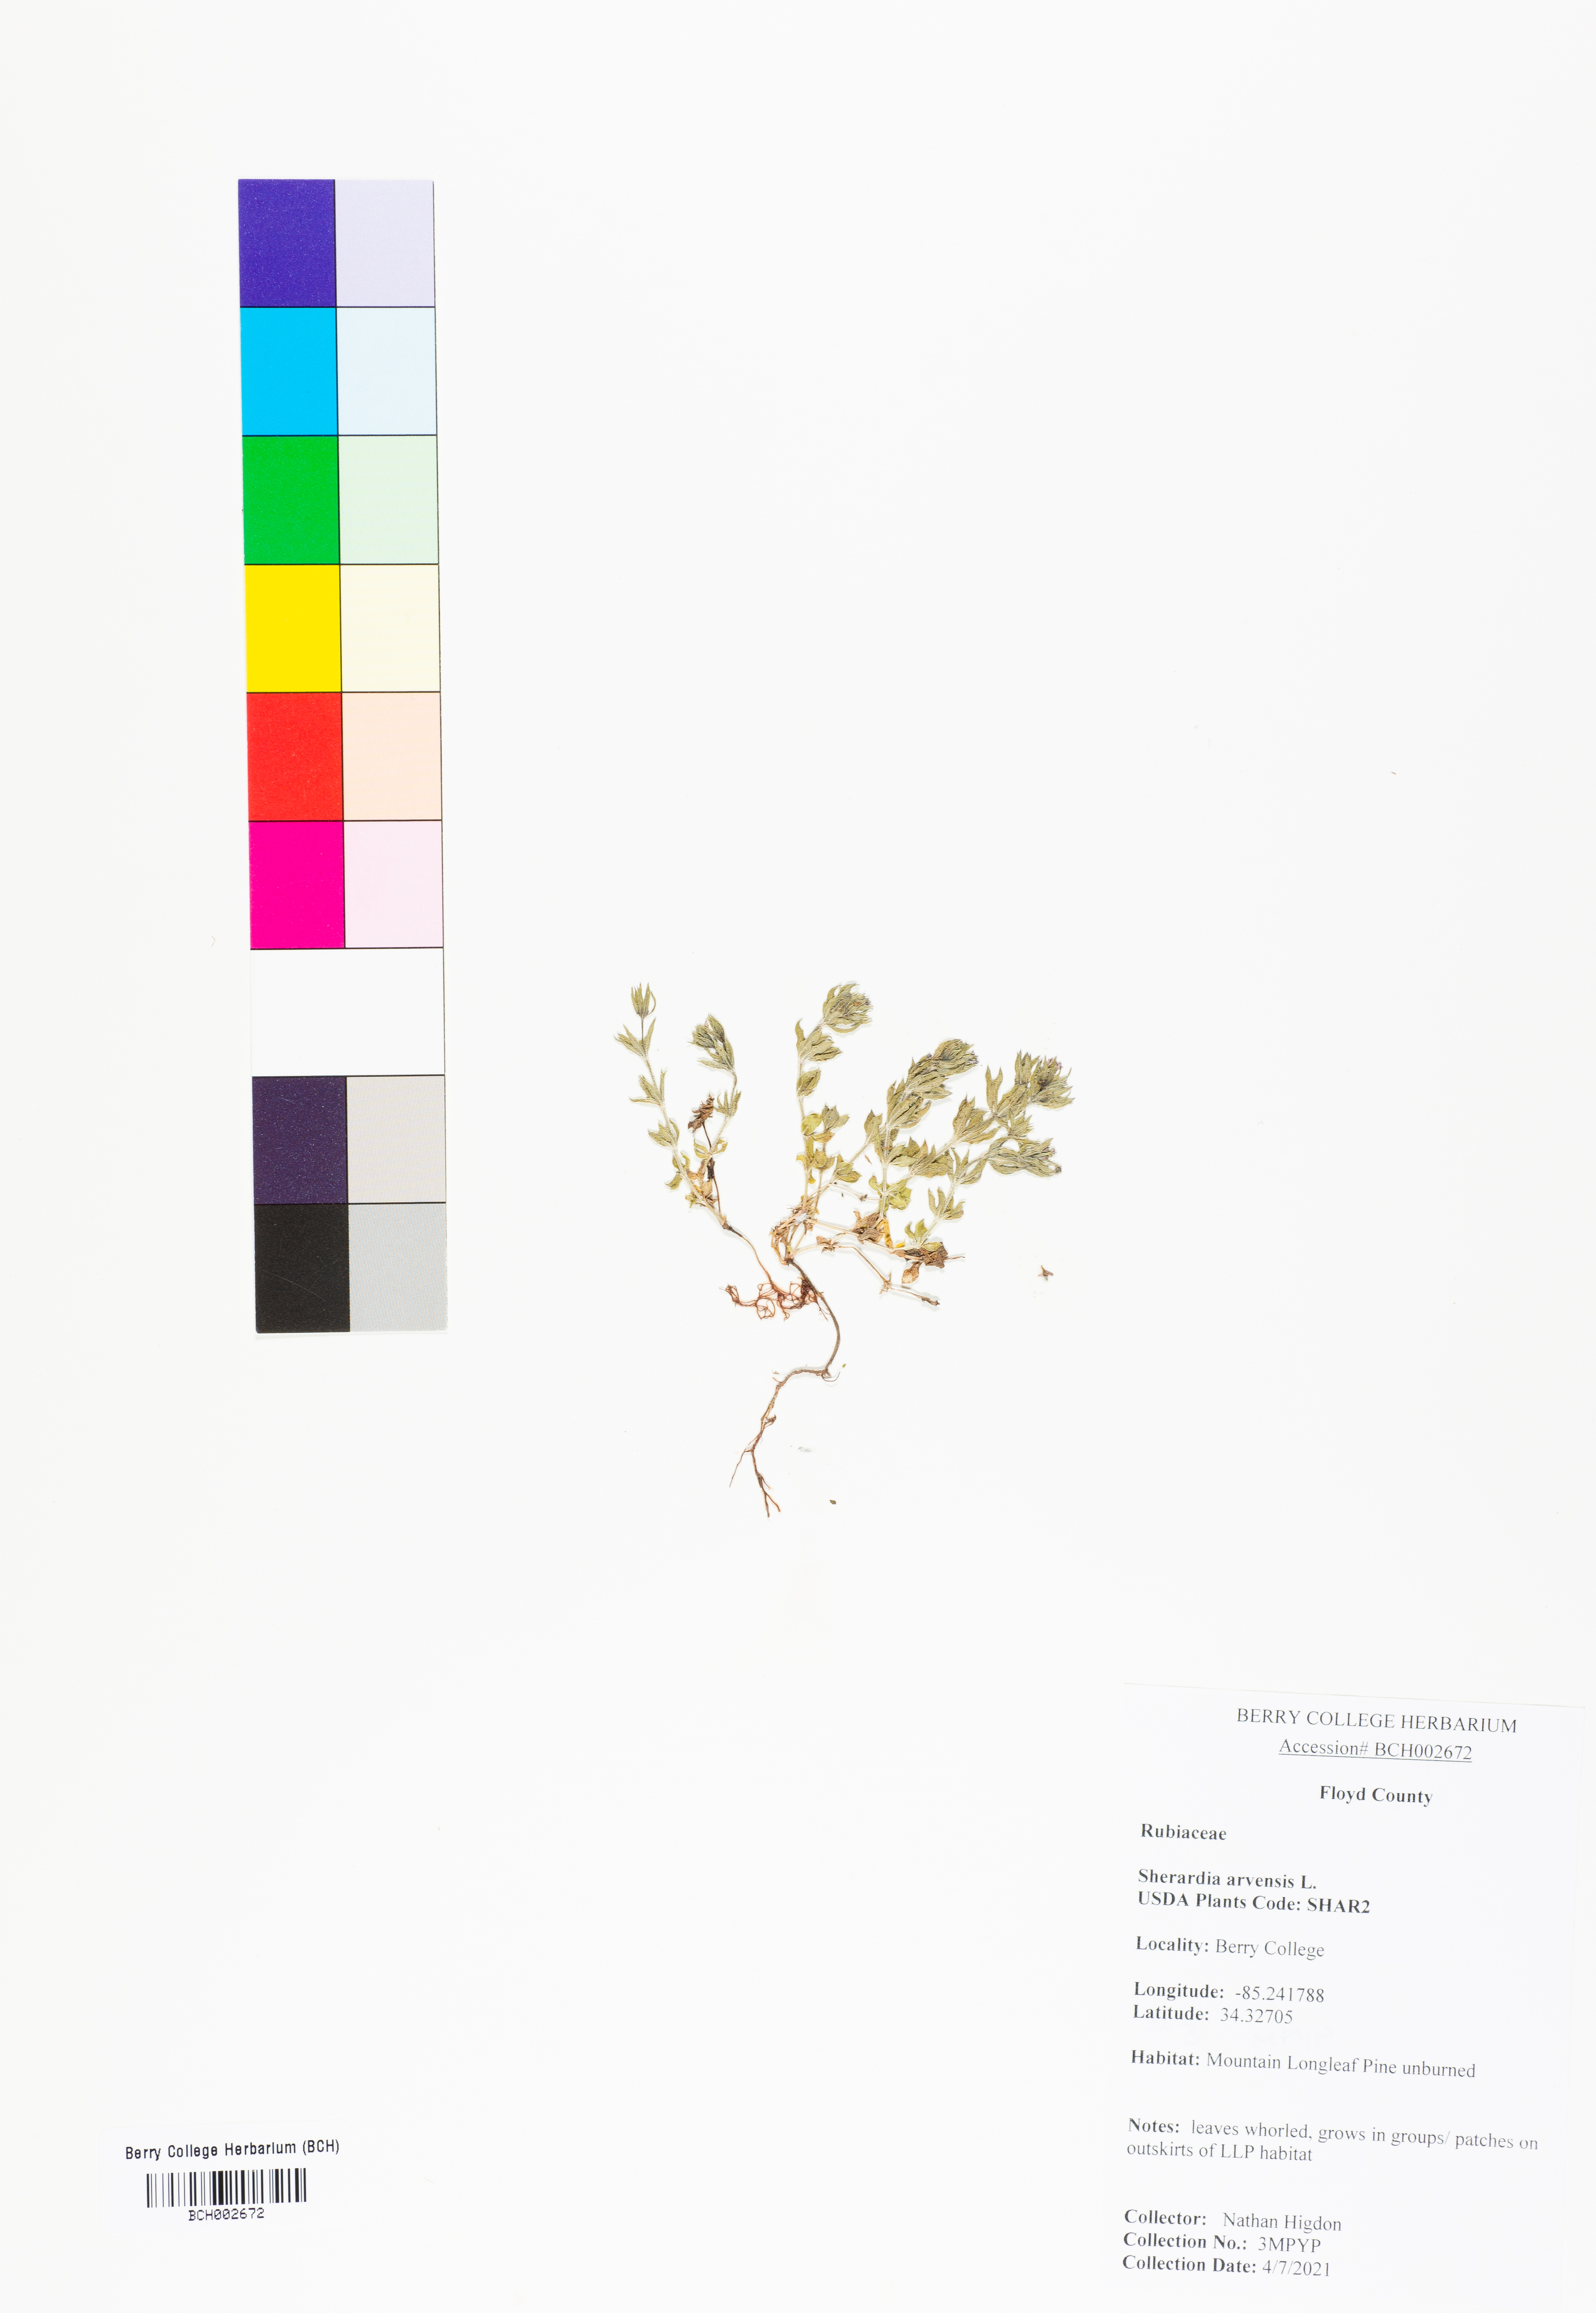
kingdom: Plantae
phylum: Tracheophyta
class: Magnoliopsida
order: Gentianales
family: Rubiaceae
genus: Sherardia
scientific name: Sherardia arvensis
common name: Field madder
